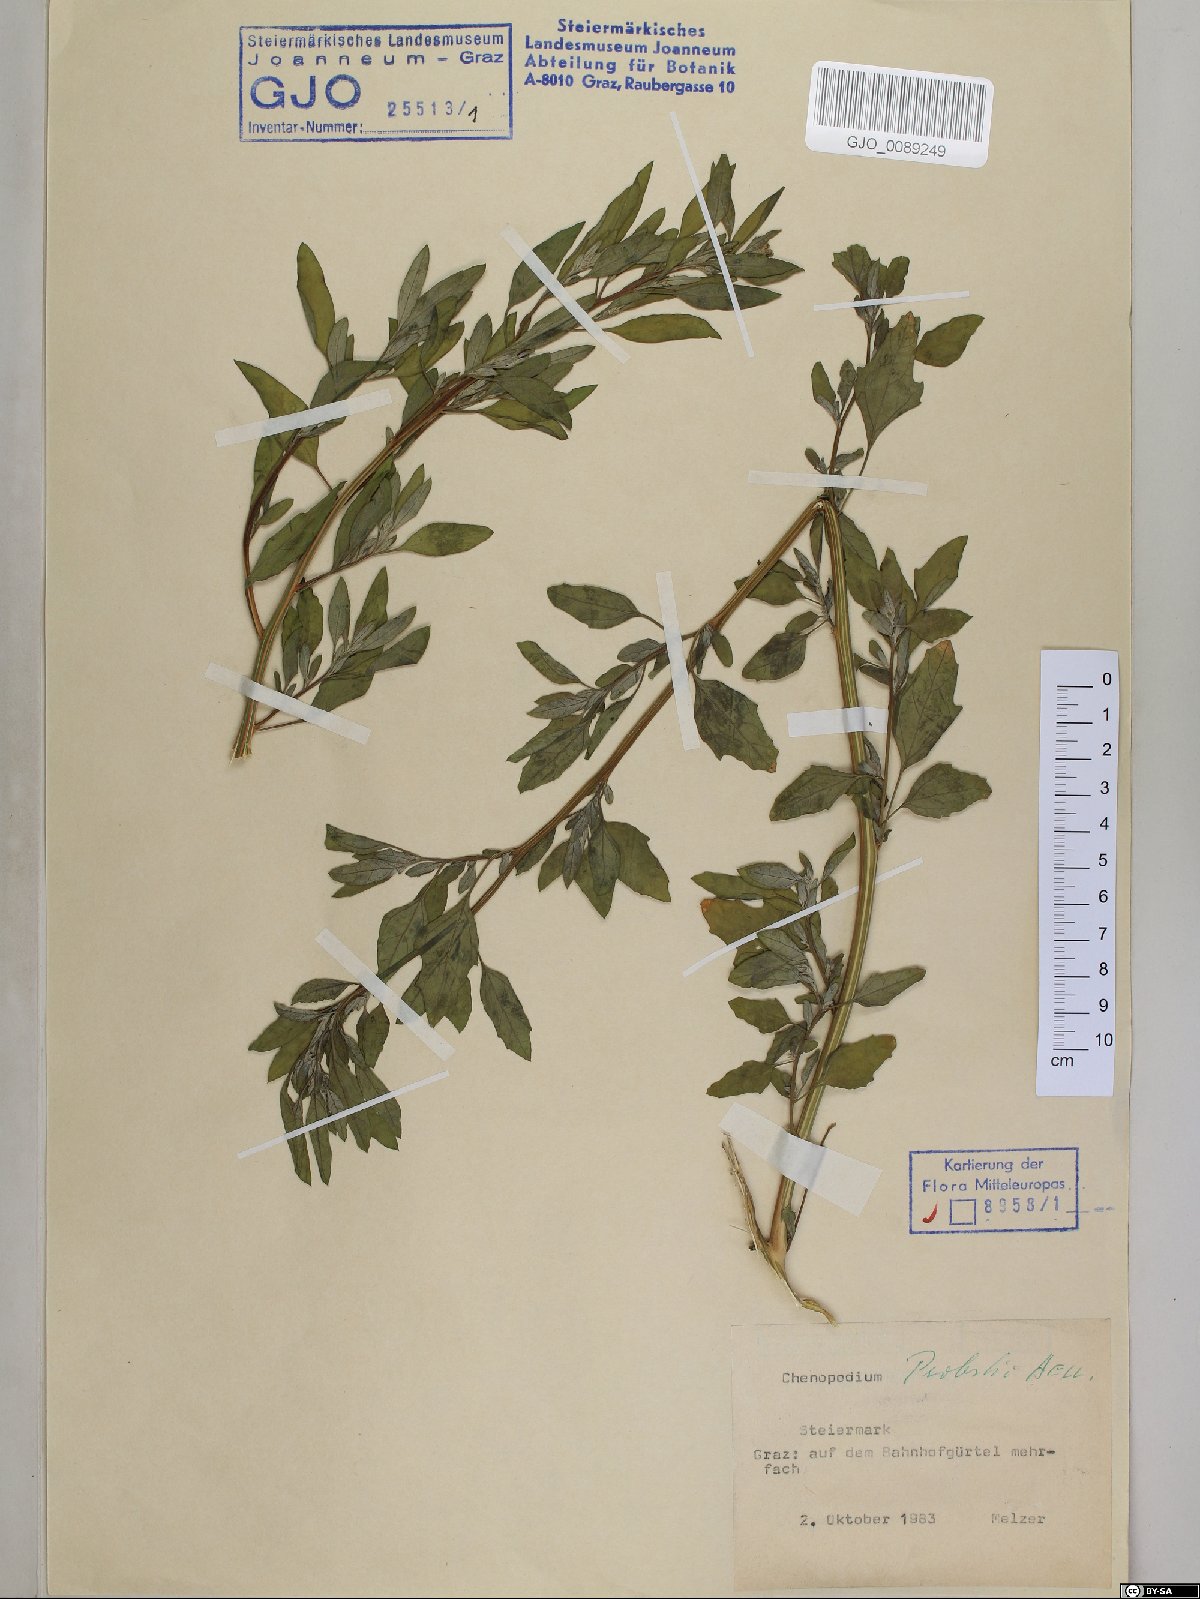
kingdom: Plantae
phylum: Tracheophyta
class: Magnoliopsida
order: Caryophyllales
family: Amaranthaceae
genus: Chenopodium
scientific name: Chenopodium probstii
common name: Probst's goosefoot
